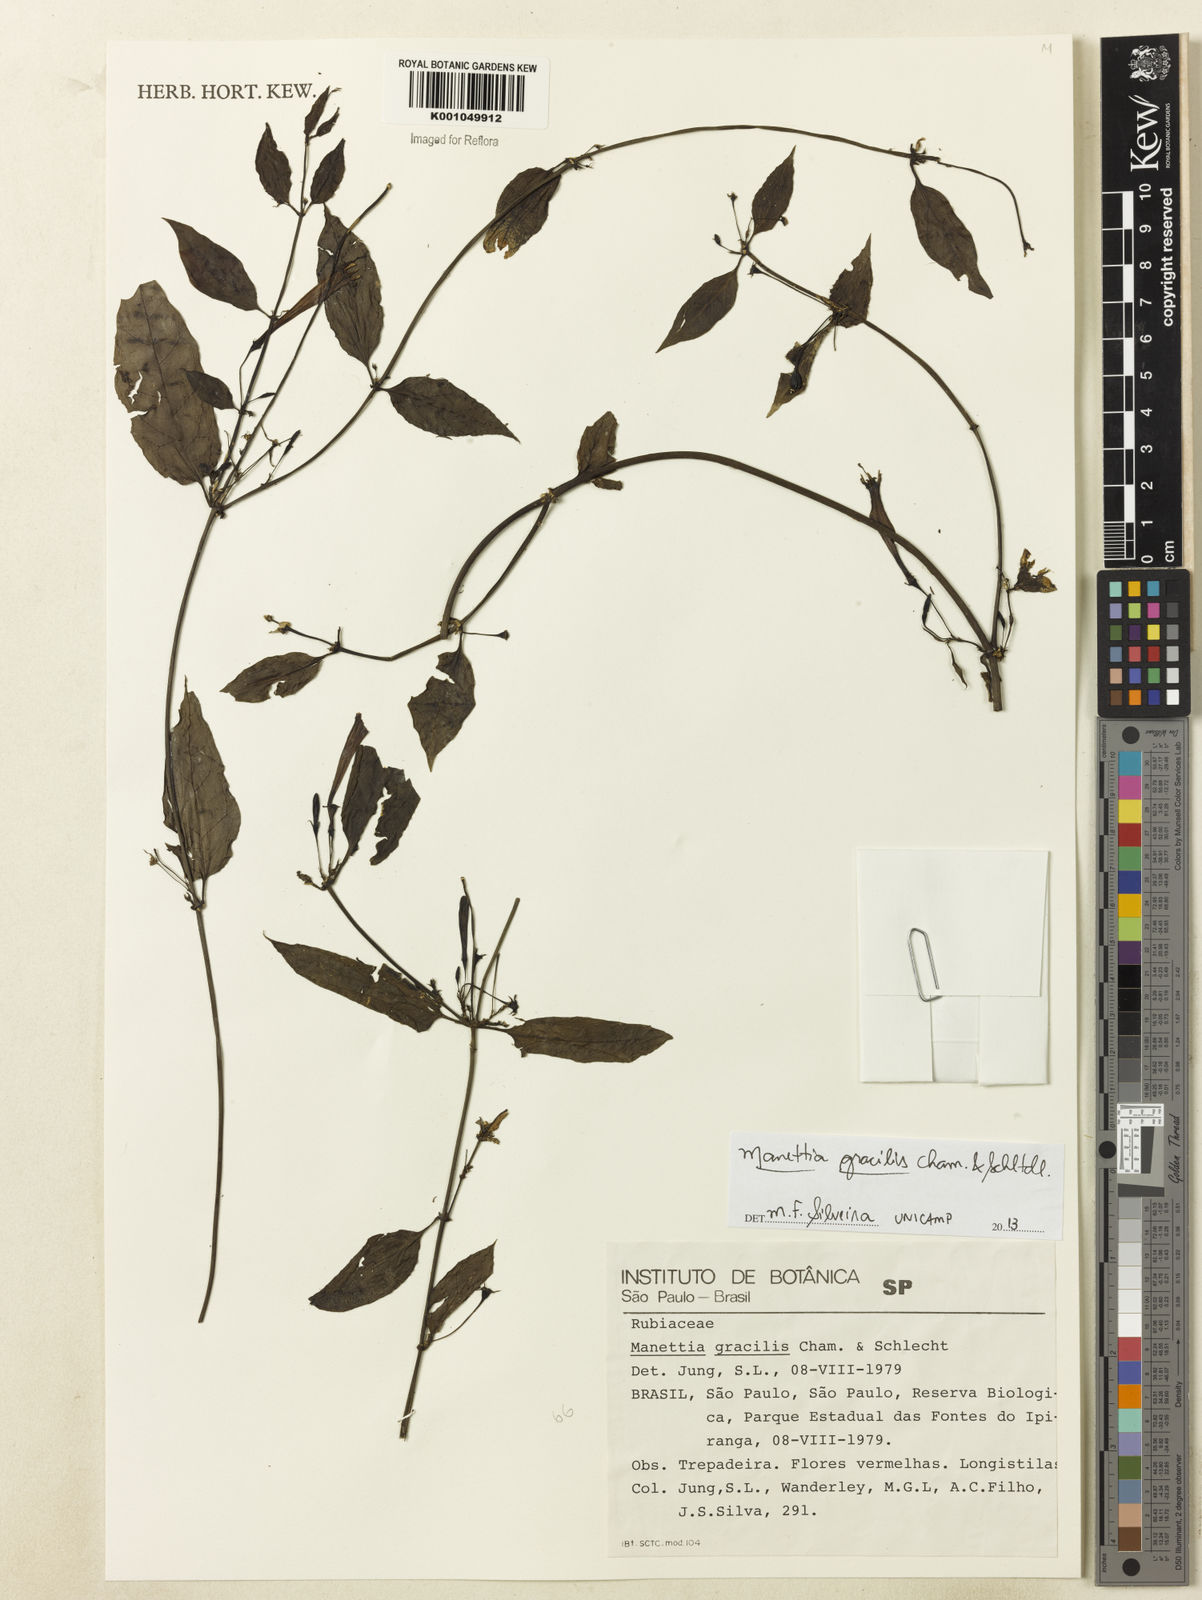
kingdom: Plantae
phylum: Tracheophyta
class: Magnoliopsida
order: Gentianales
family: Rubiaceae
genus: Manettia
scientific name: Manettia gracilis
